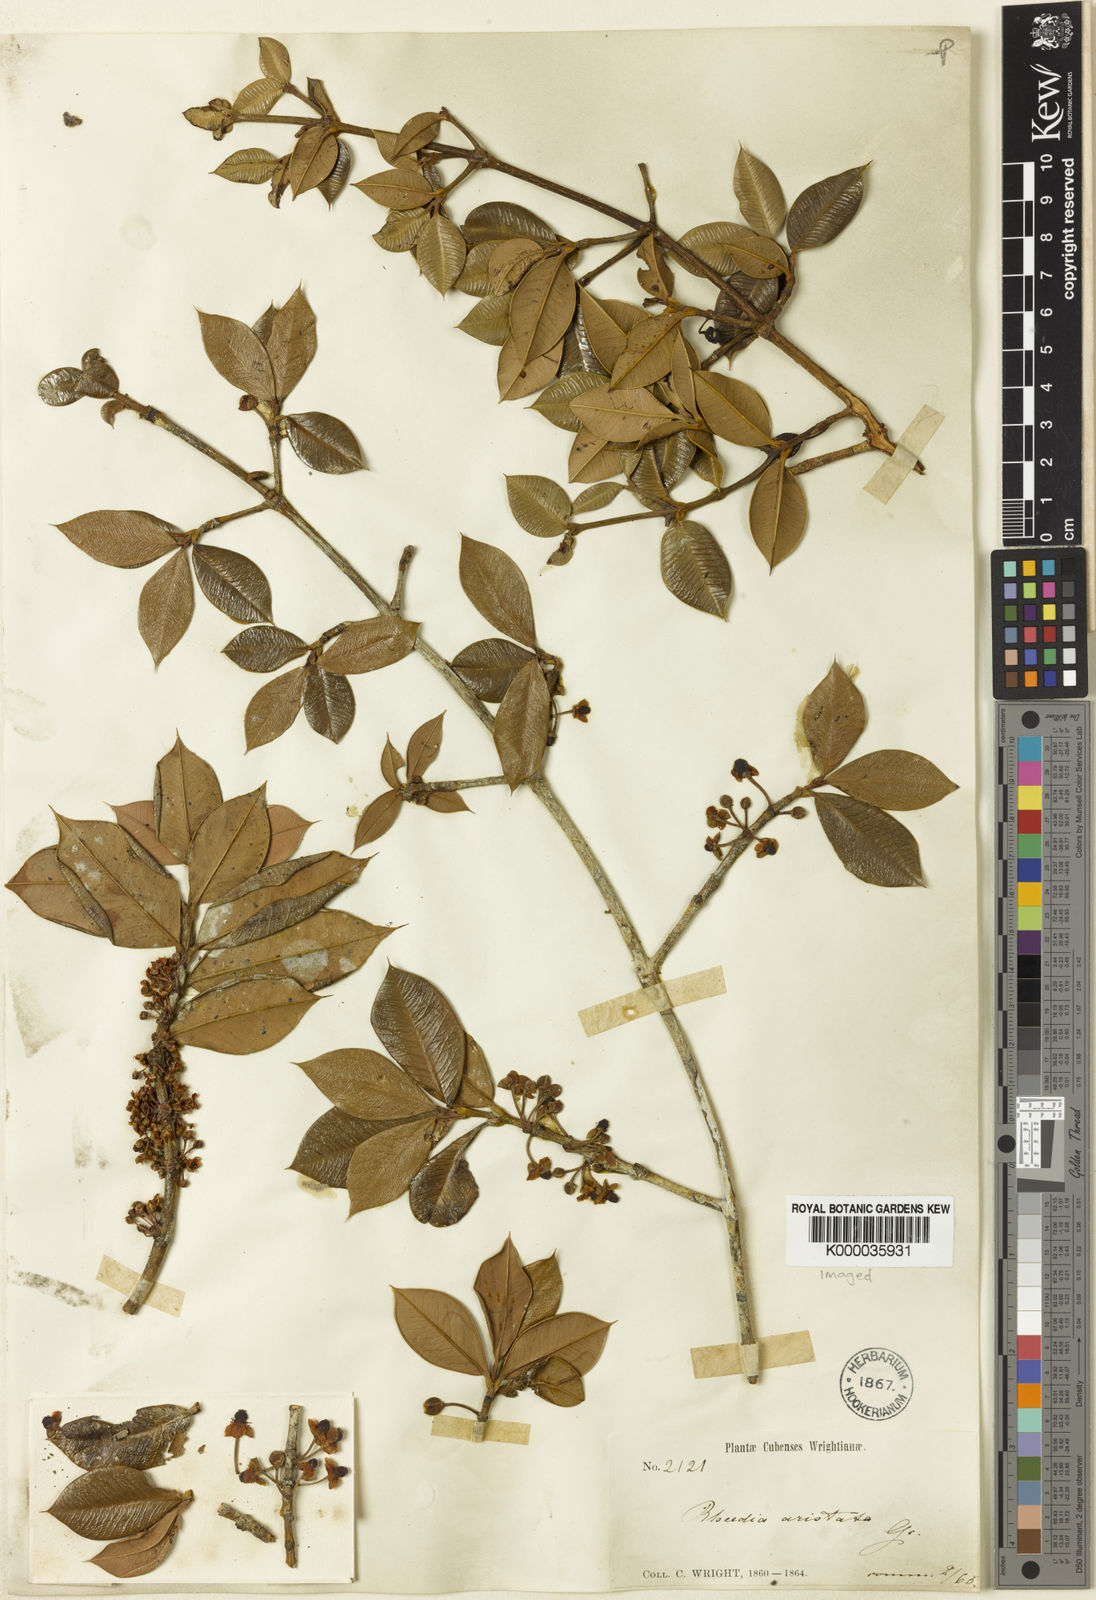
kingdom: Plantae
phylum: Tracheophyta
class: Magnoliopsida
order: Malpighiales
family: Clusiaceae
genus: Garcinia
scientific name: Garcinia aristata
